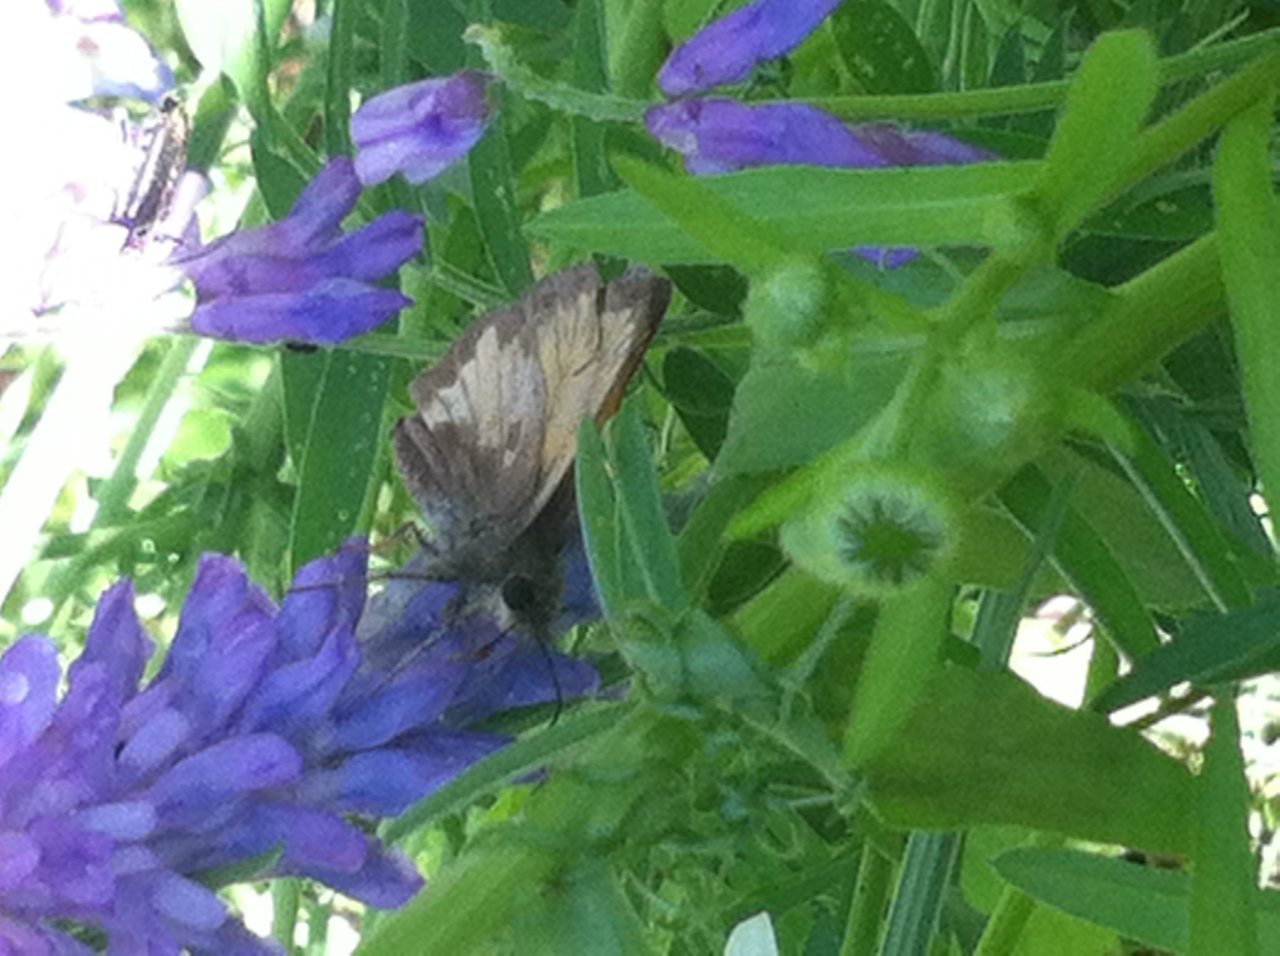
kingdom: Animalia
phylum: Arthropoda
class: Insecta
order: Lepidoptera
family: Hesperiidae
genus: Lon
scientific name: Lon hobomok
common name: Hobomok Skipper
